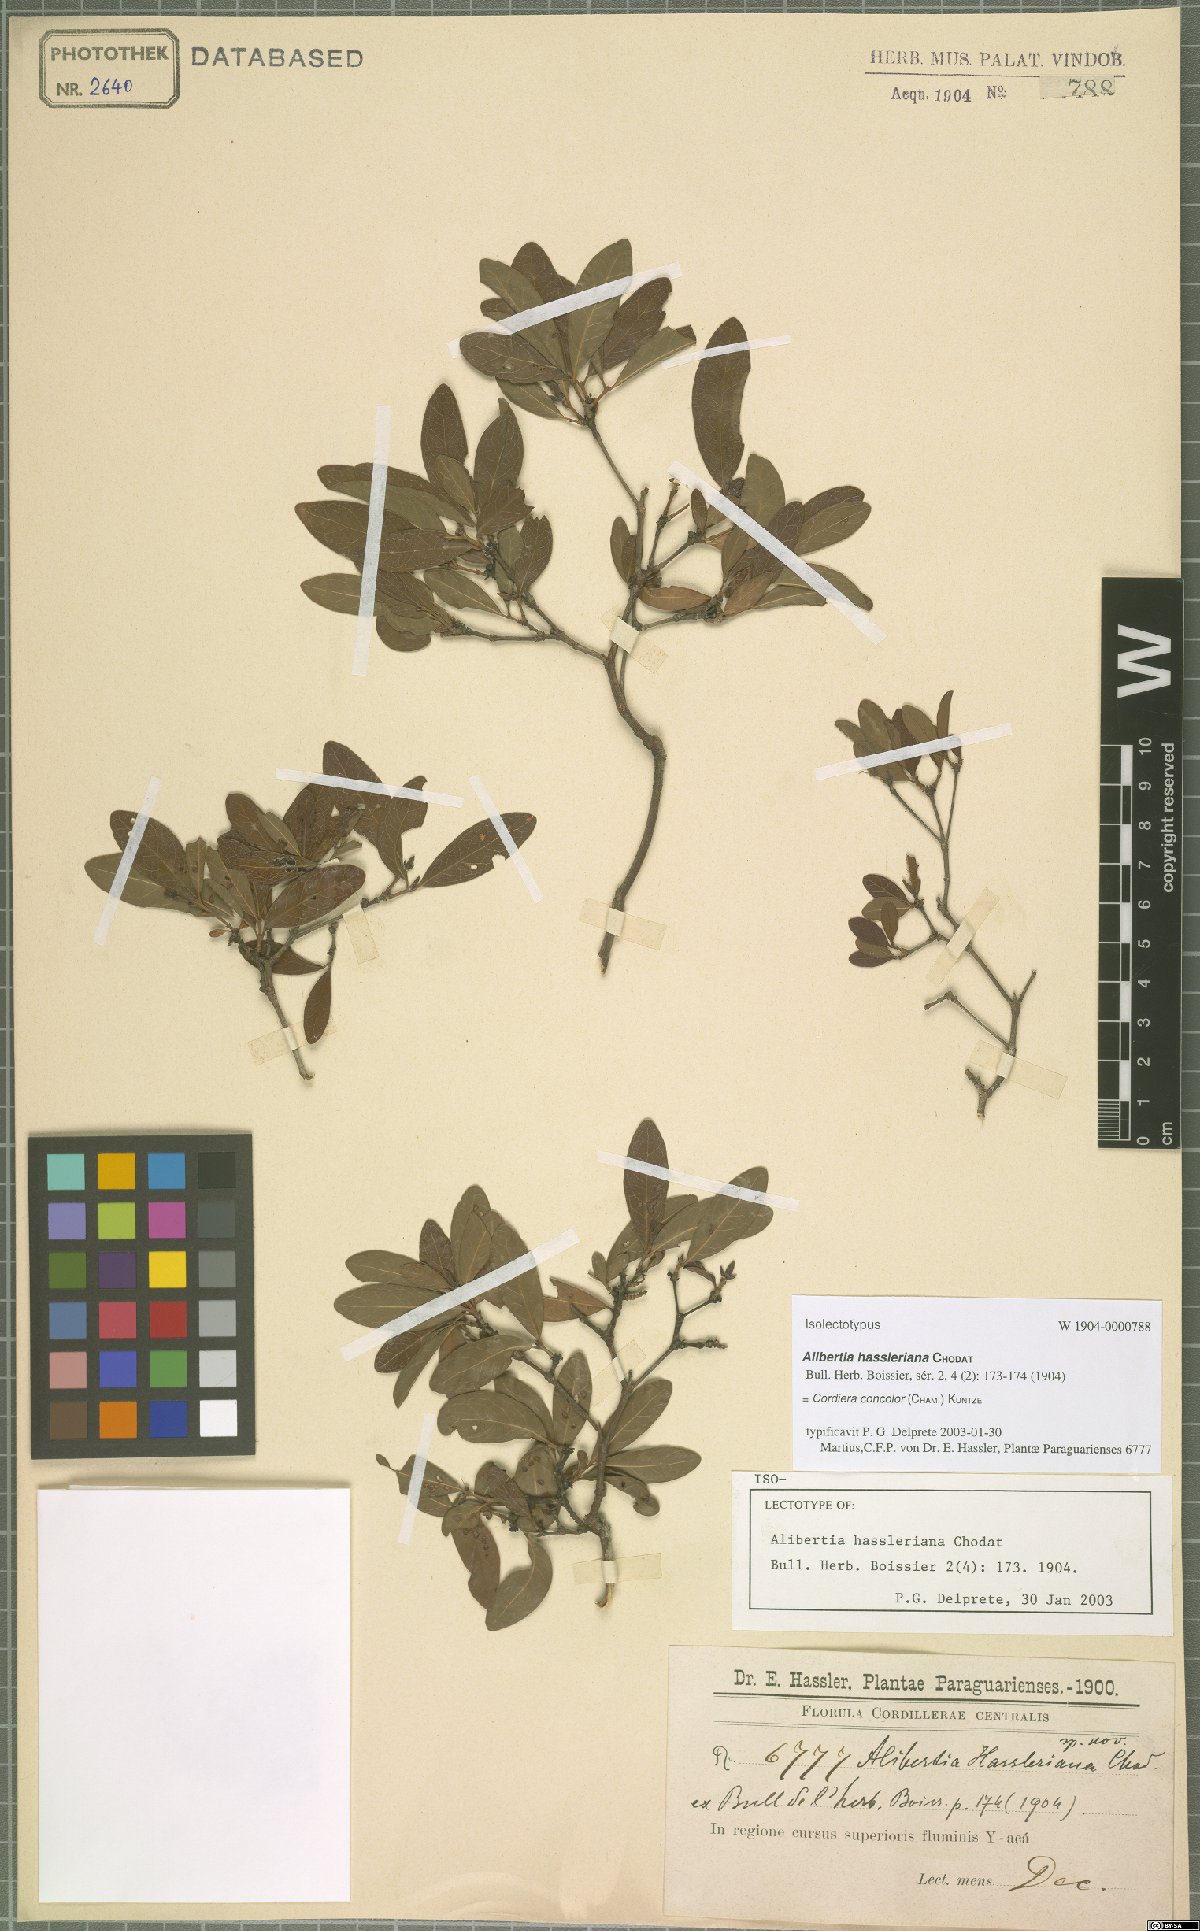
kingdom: Plantae
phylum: Tracheophyta
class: Magnoliopsida
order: Gentianales
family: Rubiaceae
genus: Cordiera
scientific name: Cordiera concolor
